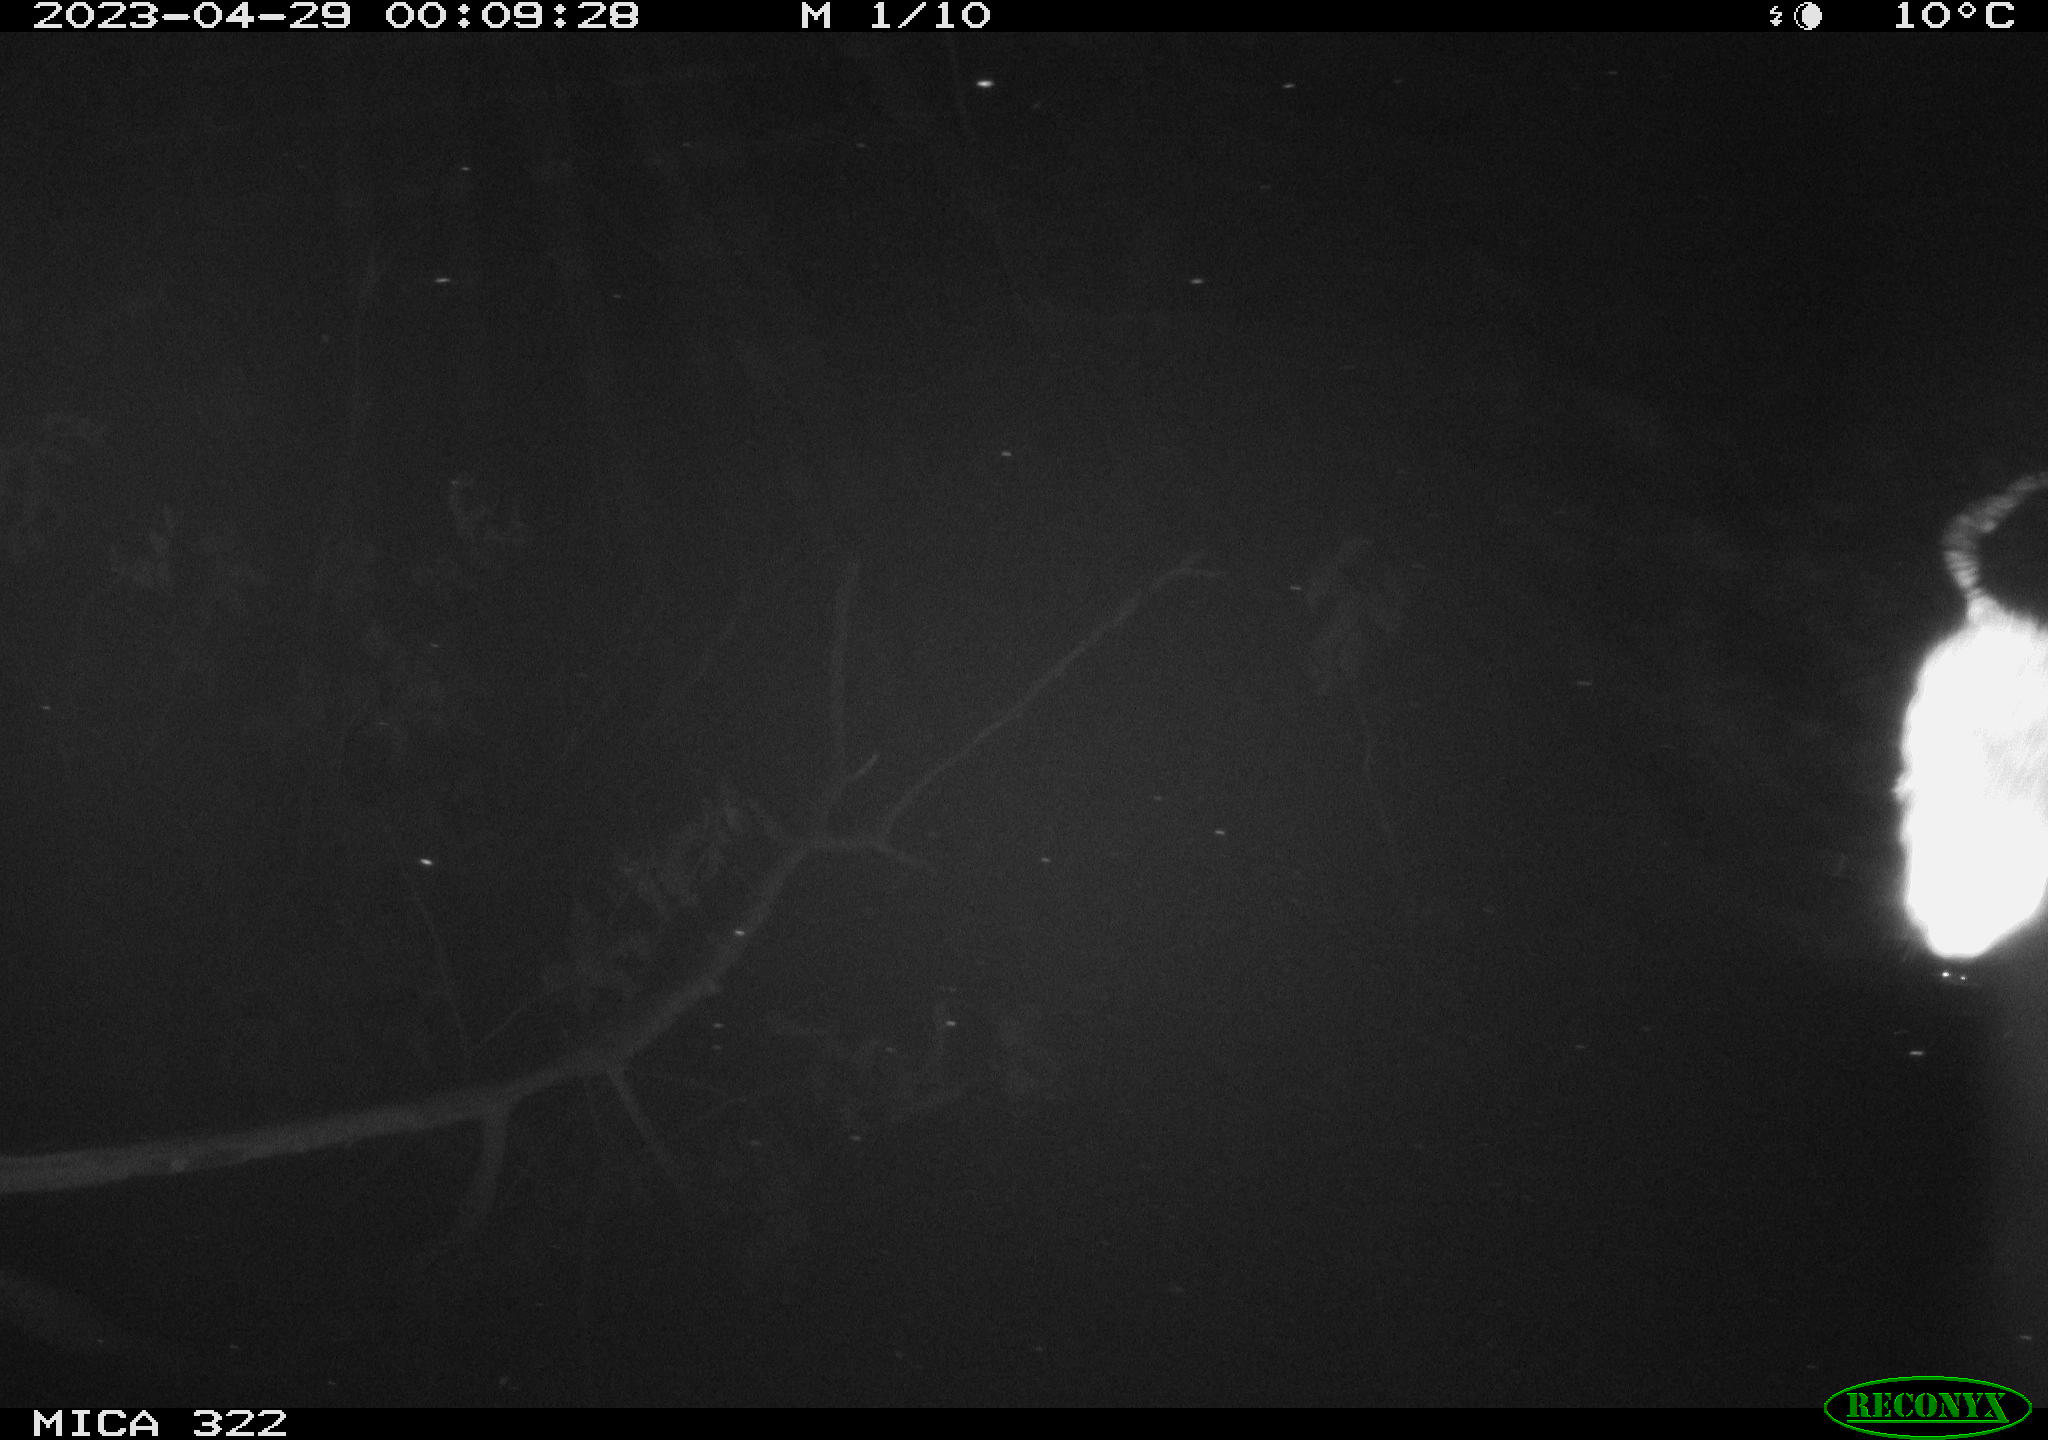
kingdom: Animalia
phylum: Chordata
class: Mammalia
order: Rodentia
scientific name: Rodentia
